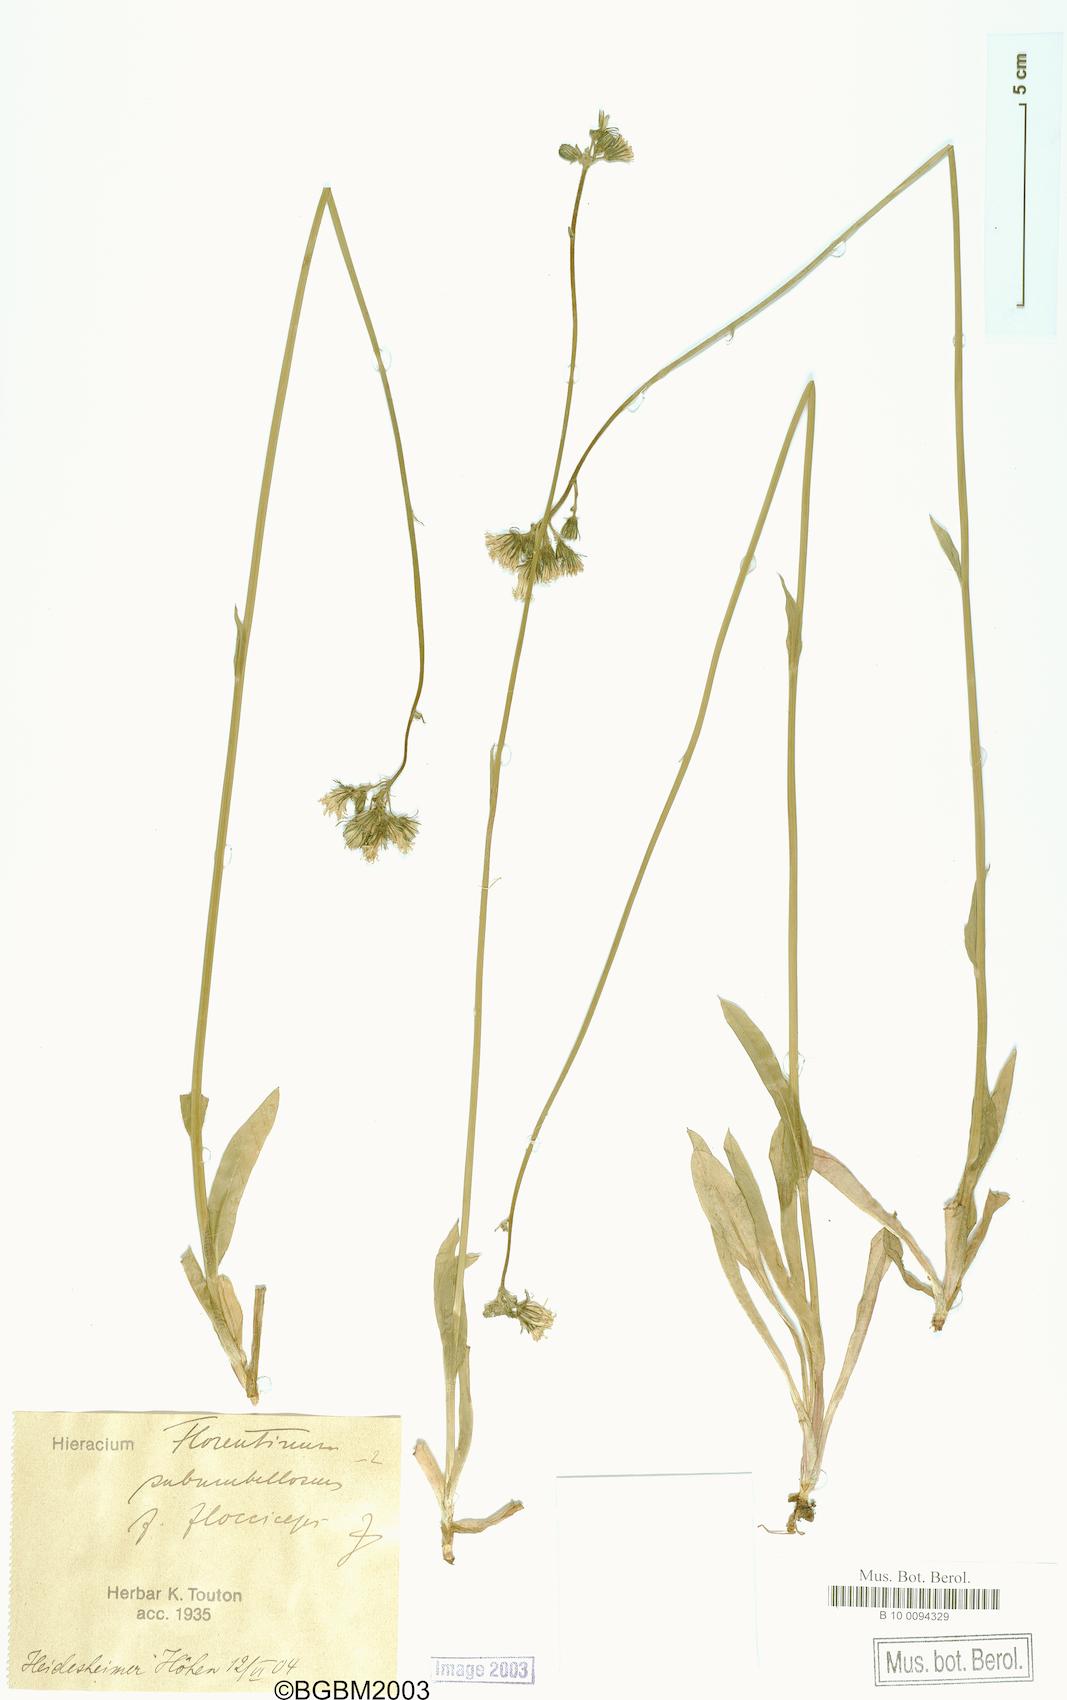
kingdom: Plantae
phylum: Tracheophyta
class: Magnoliopsida
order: Asterales
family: Asteraceae
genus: Hieracium
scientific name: Hieracium florentinum
